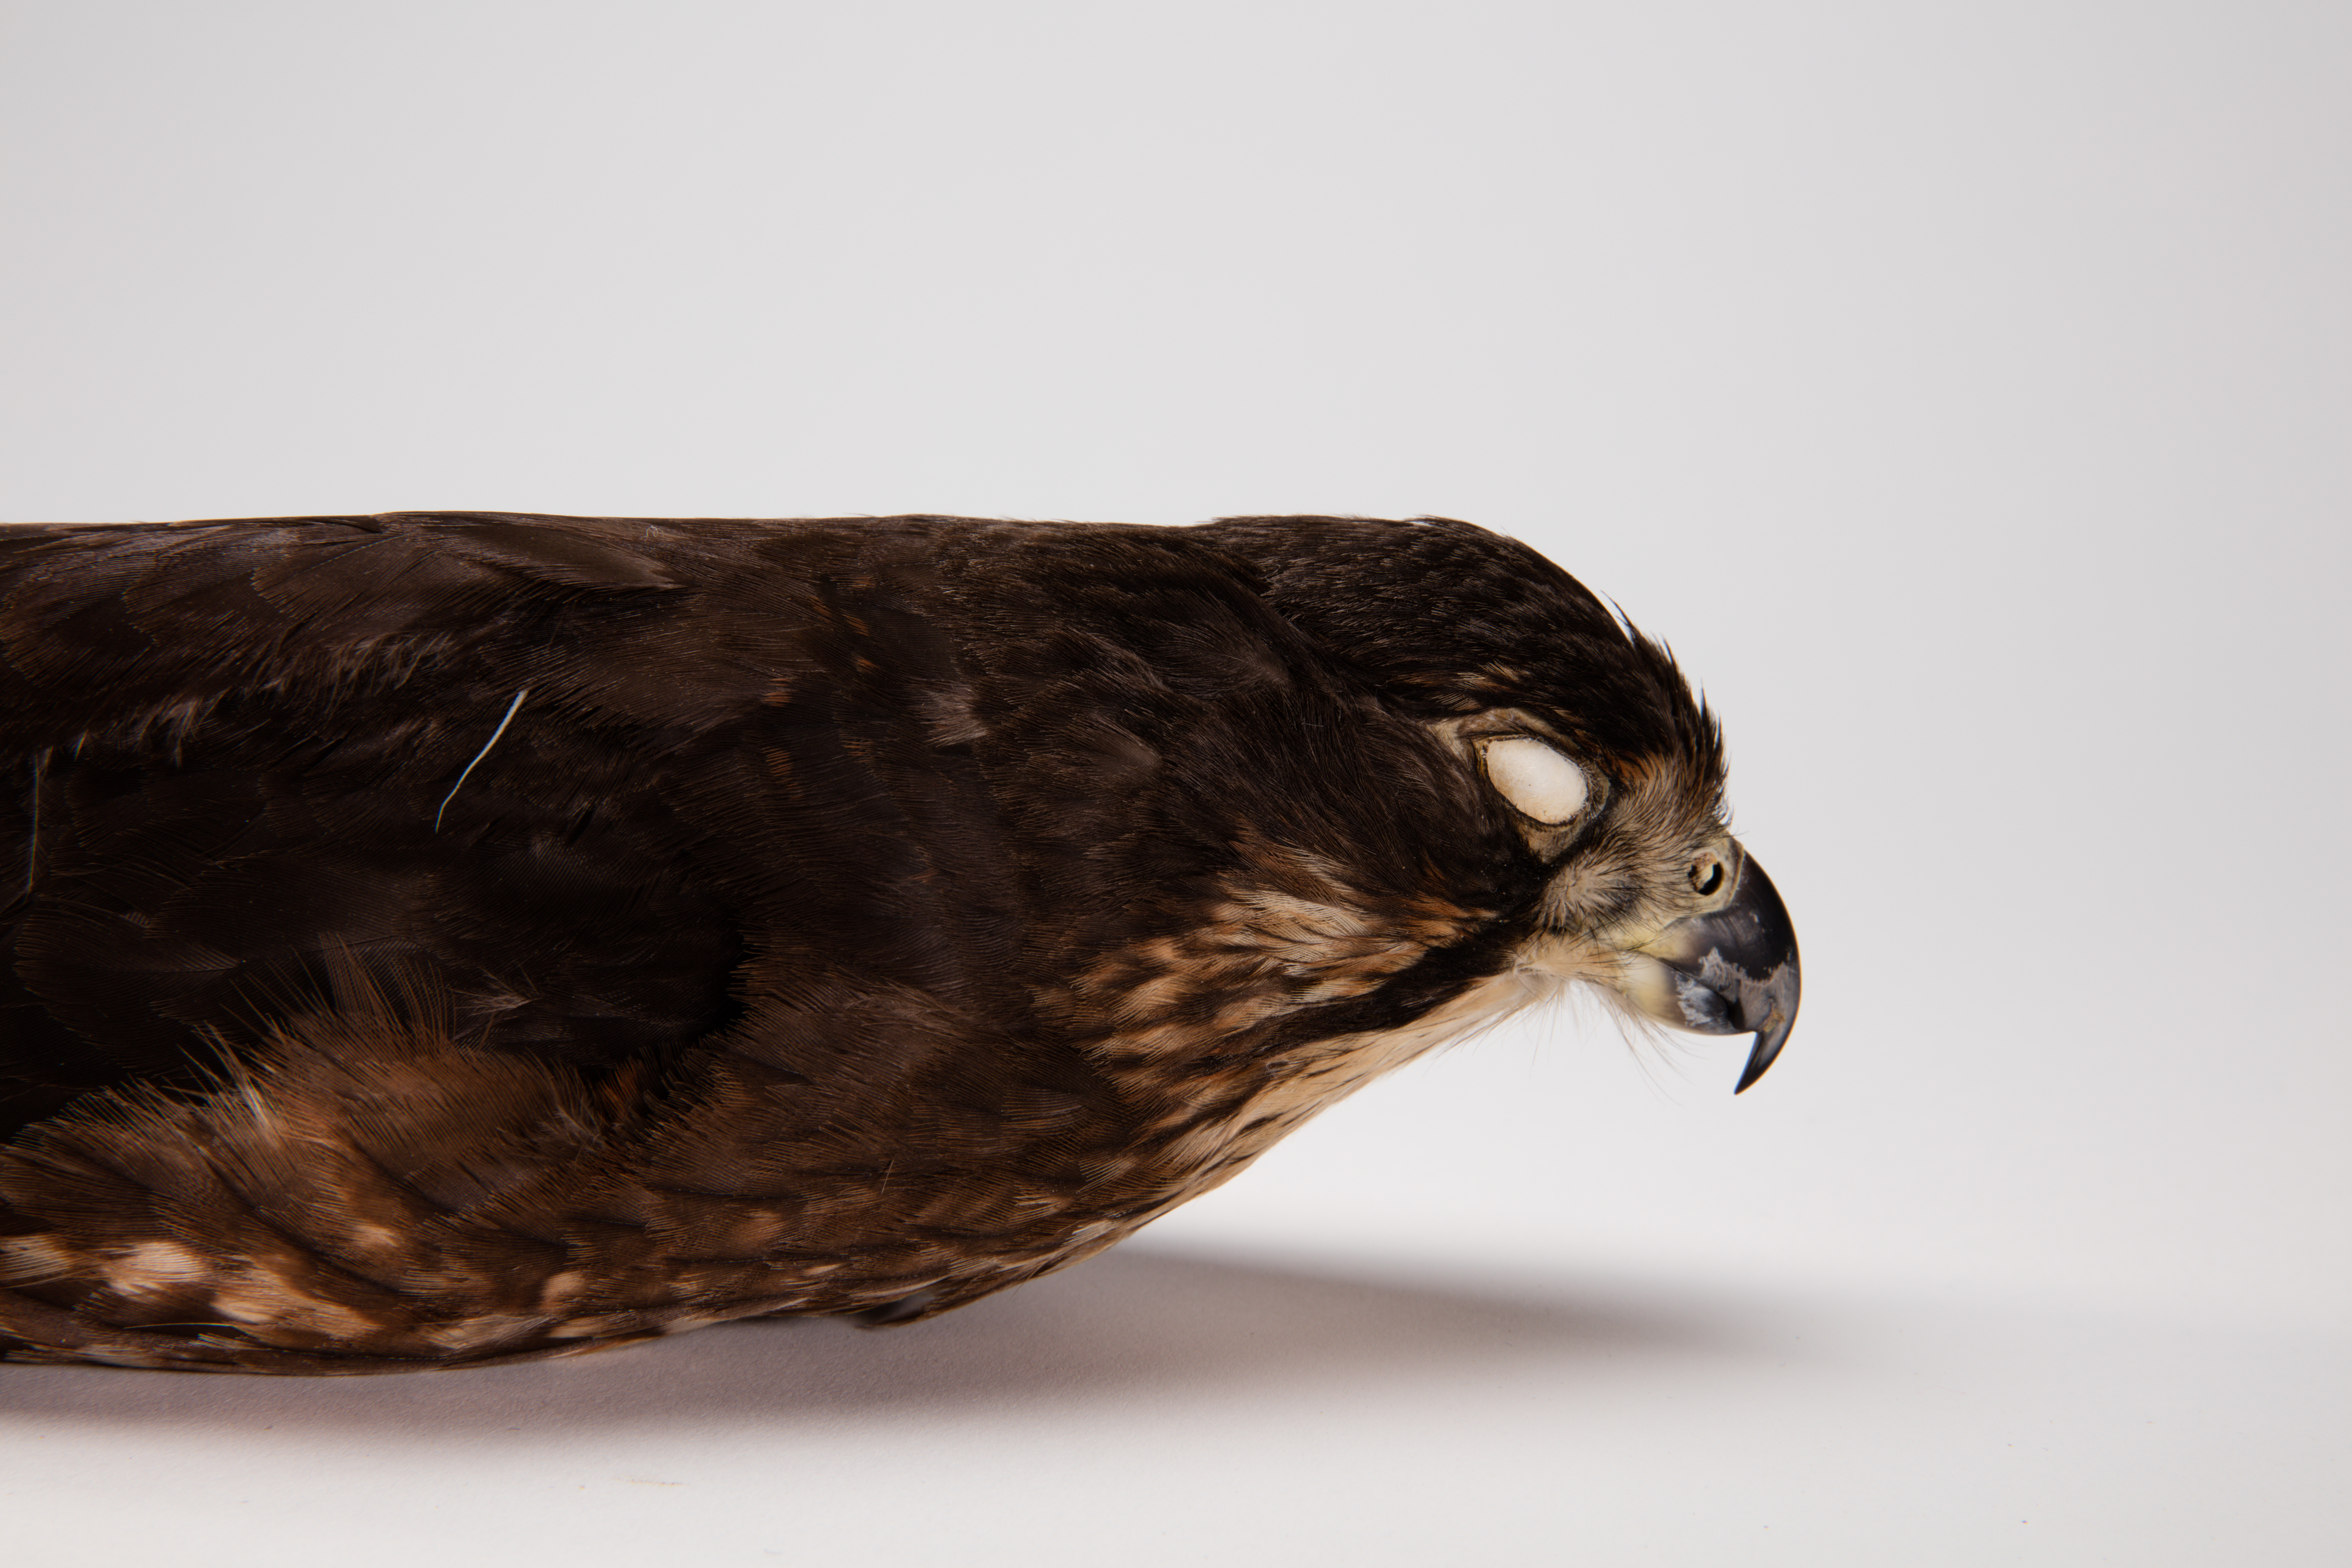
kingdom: Animalia
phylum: Chordata
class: Aves
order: Falconiformes
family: Falconidae
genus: Falco
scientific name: Falco novaeseelandiae
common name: New zealand falcon
